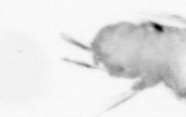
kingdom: Animalia
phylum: Annelida
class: Polychaeta
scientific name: Polychaeta
